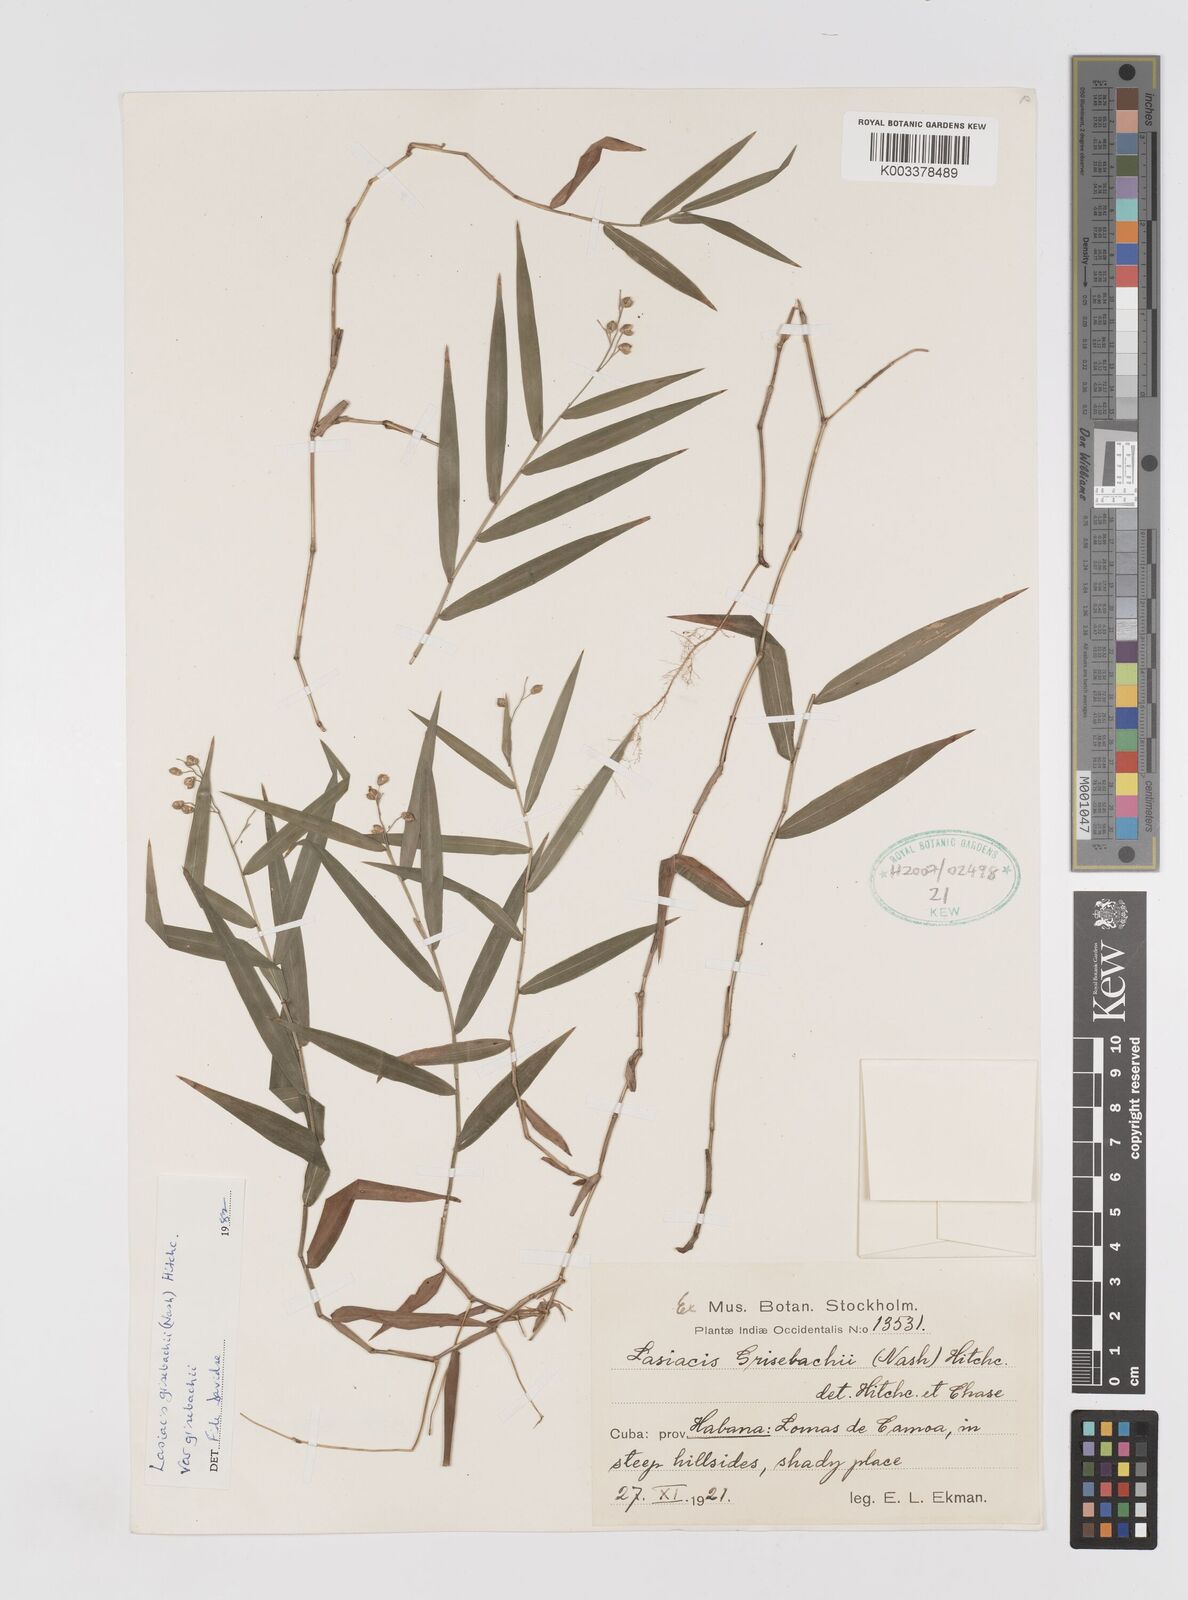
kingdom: Plantae
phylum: Tracheophyta
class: Liliopsida
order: Poales
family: Poaceae
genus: Lasiacis
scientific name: Lasiacis grisebachii
